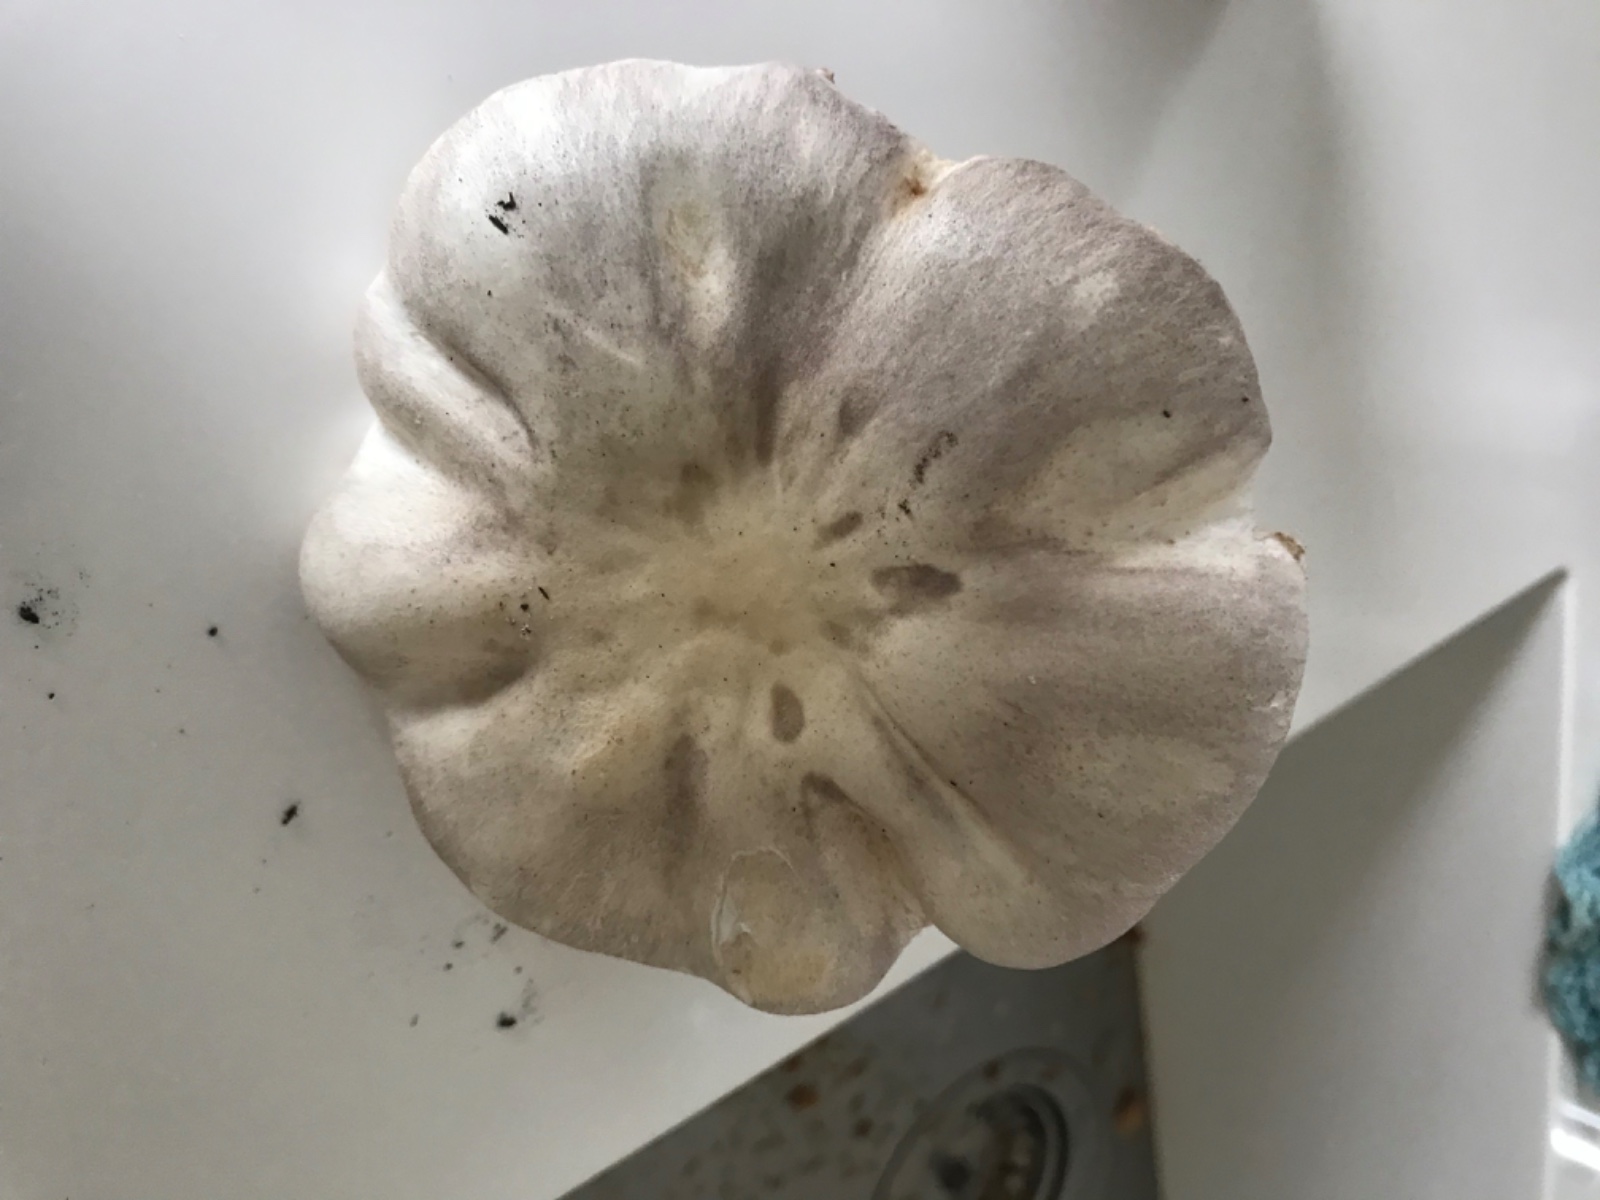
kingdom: Fungi
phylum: Basidiomycota
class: Agaricomycetes
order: Agaricales
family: Agaricaceae
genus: Leucoagaricus
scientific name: Leucoagaricus carneifolius
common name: grånende silkehat
